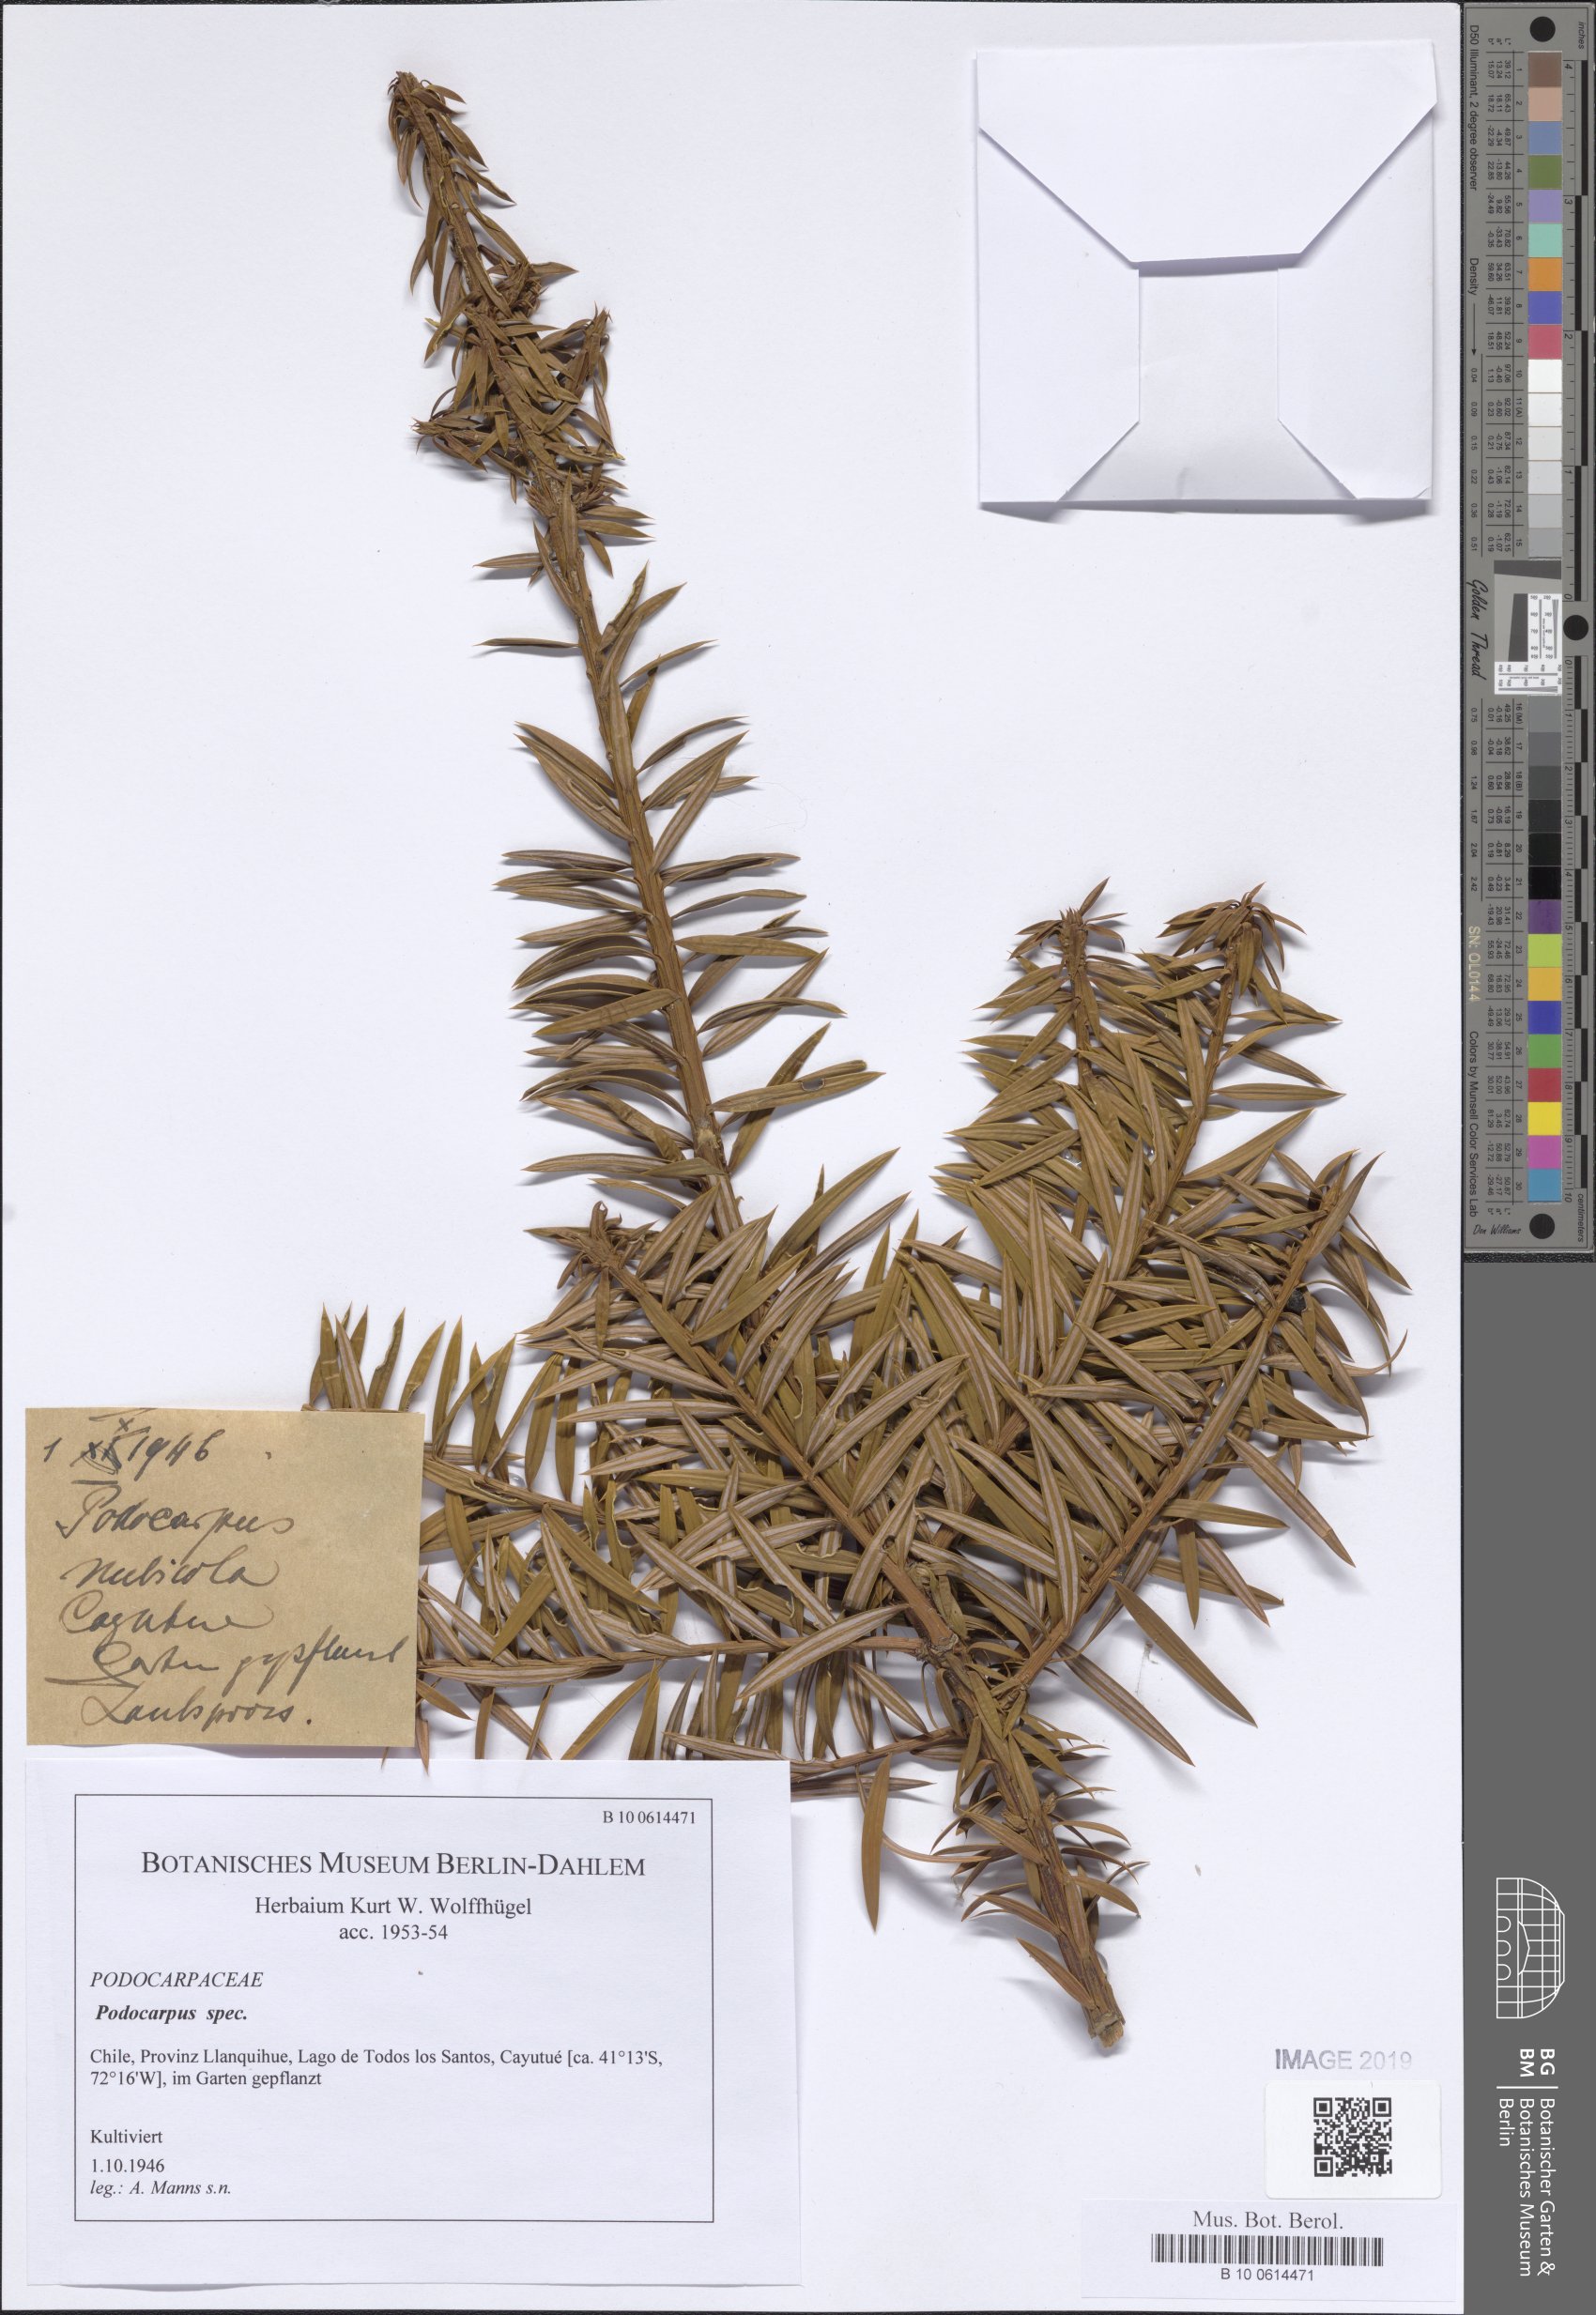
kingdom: Plantae
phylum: Tracheophyta
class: Pinopsida
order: Pinales
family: Podocarpaceae
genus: Podocarpus
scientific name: Podocarpus
